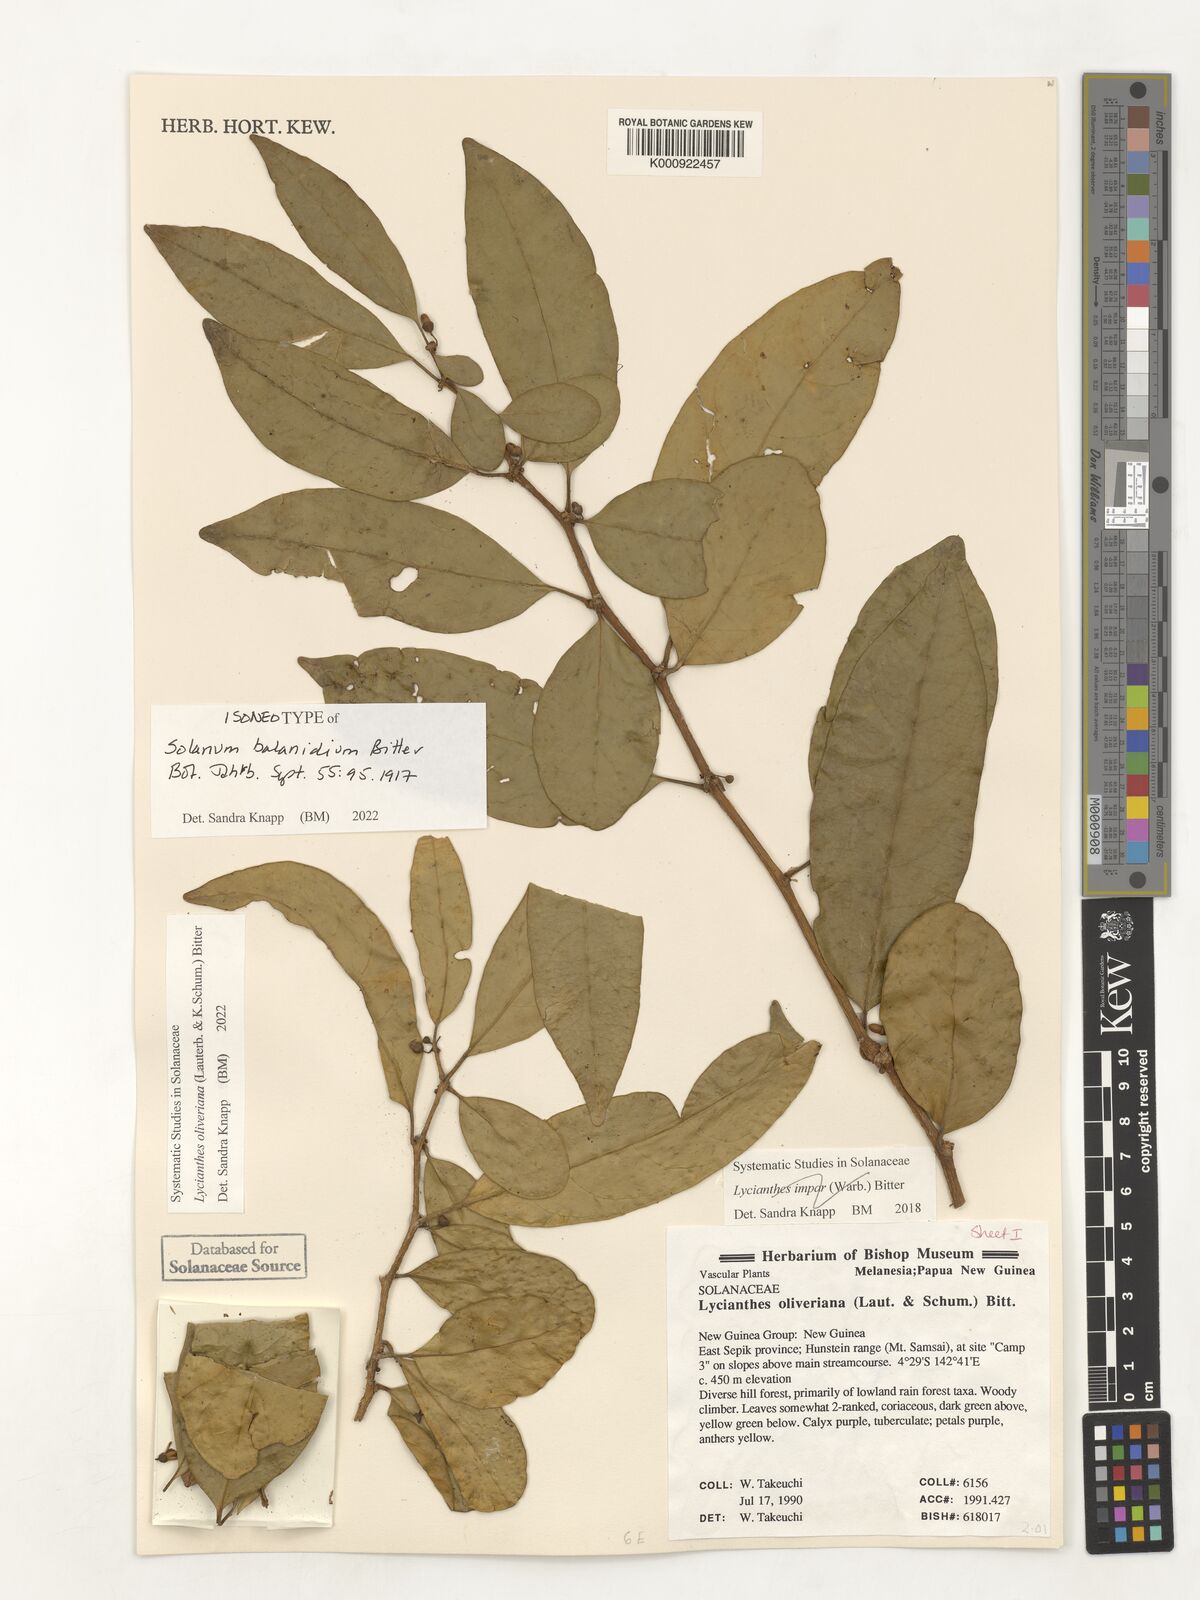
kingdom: Plantae
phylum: Tracheophyta
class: Magnoliopsida
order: Solanales
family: Solanaceae
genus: Lycianthes
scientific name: Lycianthes oliveriana
